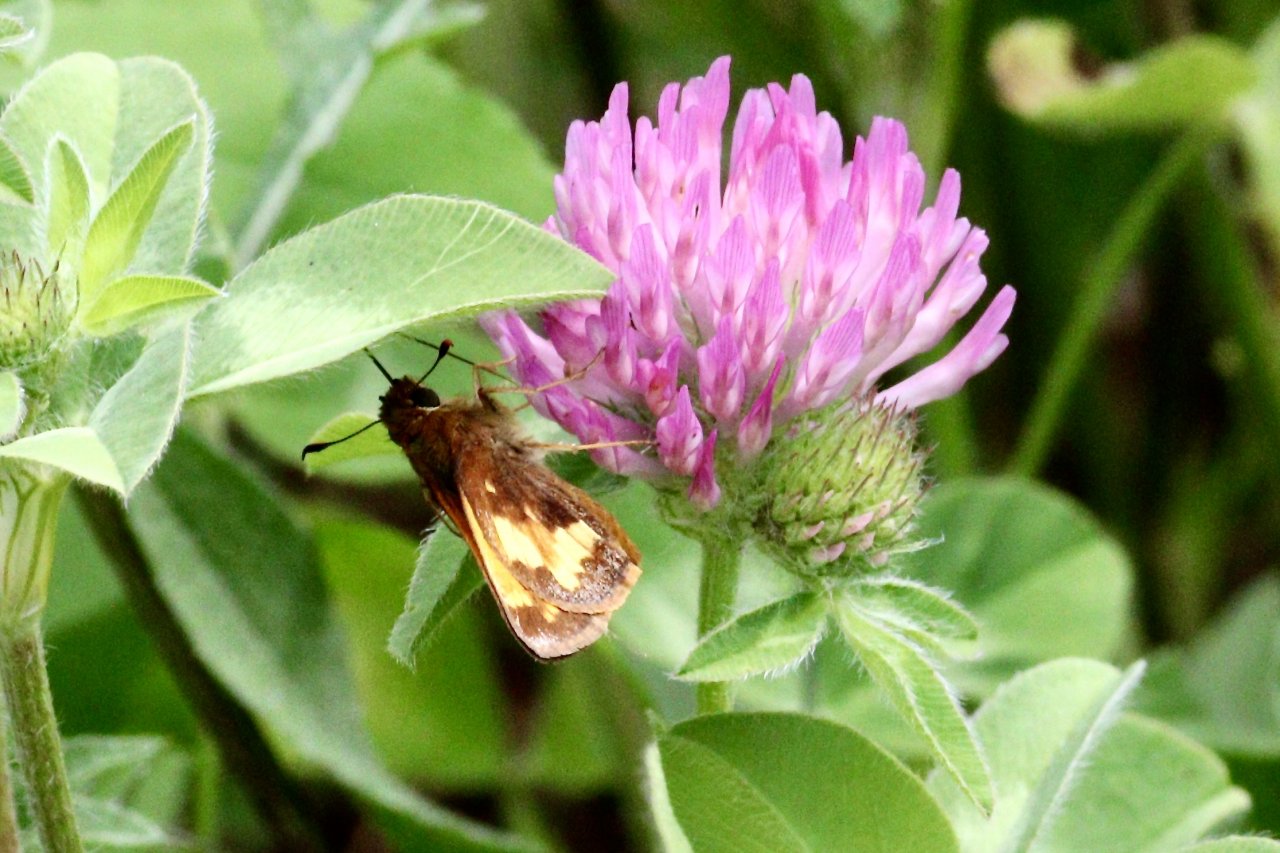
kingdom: Animalia
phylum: Arthropoda
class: Insecta
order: Lepidoptera
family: Hesperiidae
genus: Lon
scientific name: Lon hobomok
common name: Hobomok Skipper
